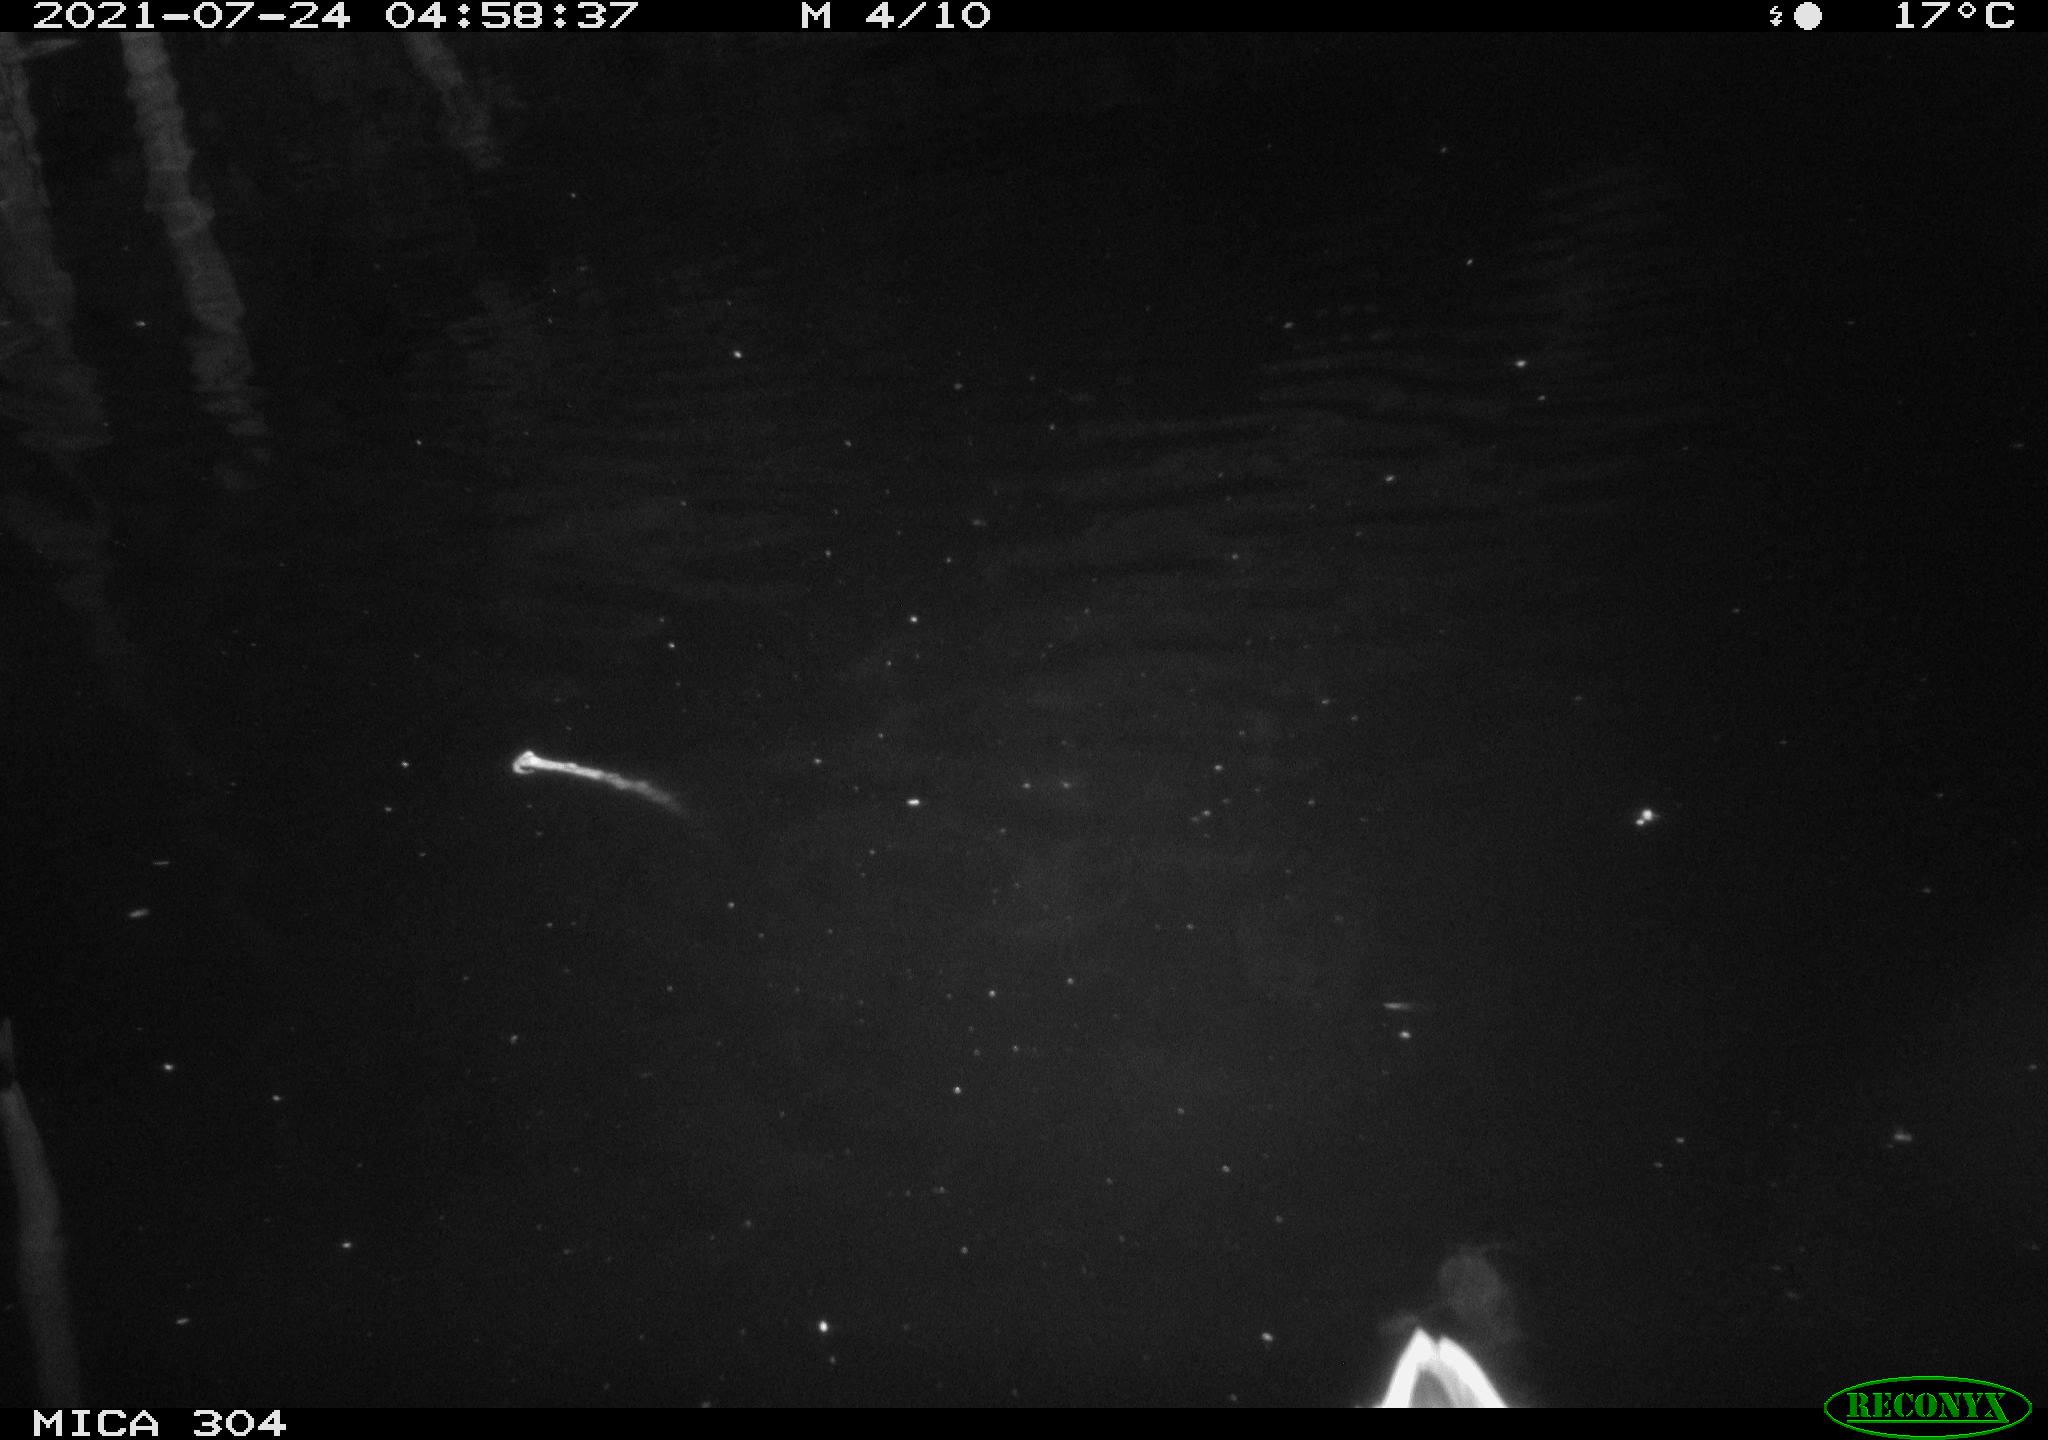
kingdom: Animalia
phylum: Chordata
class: Aves
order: Anseriformes
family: Anatidae
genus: Anas
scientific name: Anas platyrhynchos
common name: Mallard
